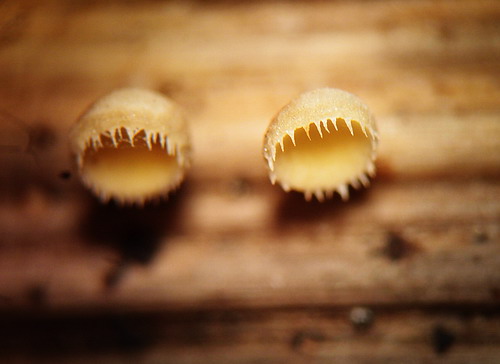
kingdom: Fungi
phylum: Ascomycota
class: Leotiomycetes
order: Helotiales
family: Helotiaceae
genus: Cyathicula
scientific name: Cyathicula coronata
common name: krone-stilkskive
